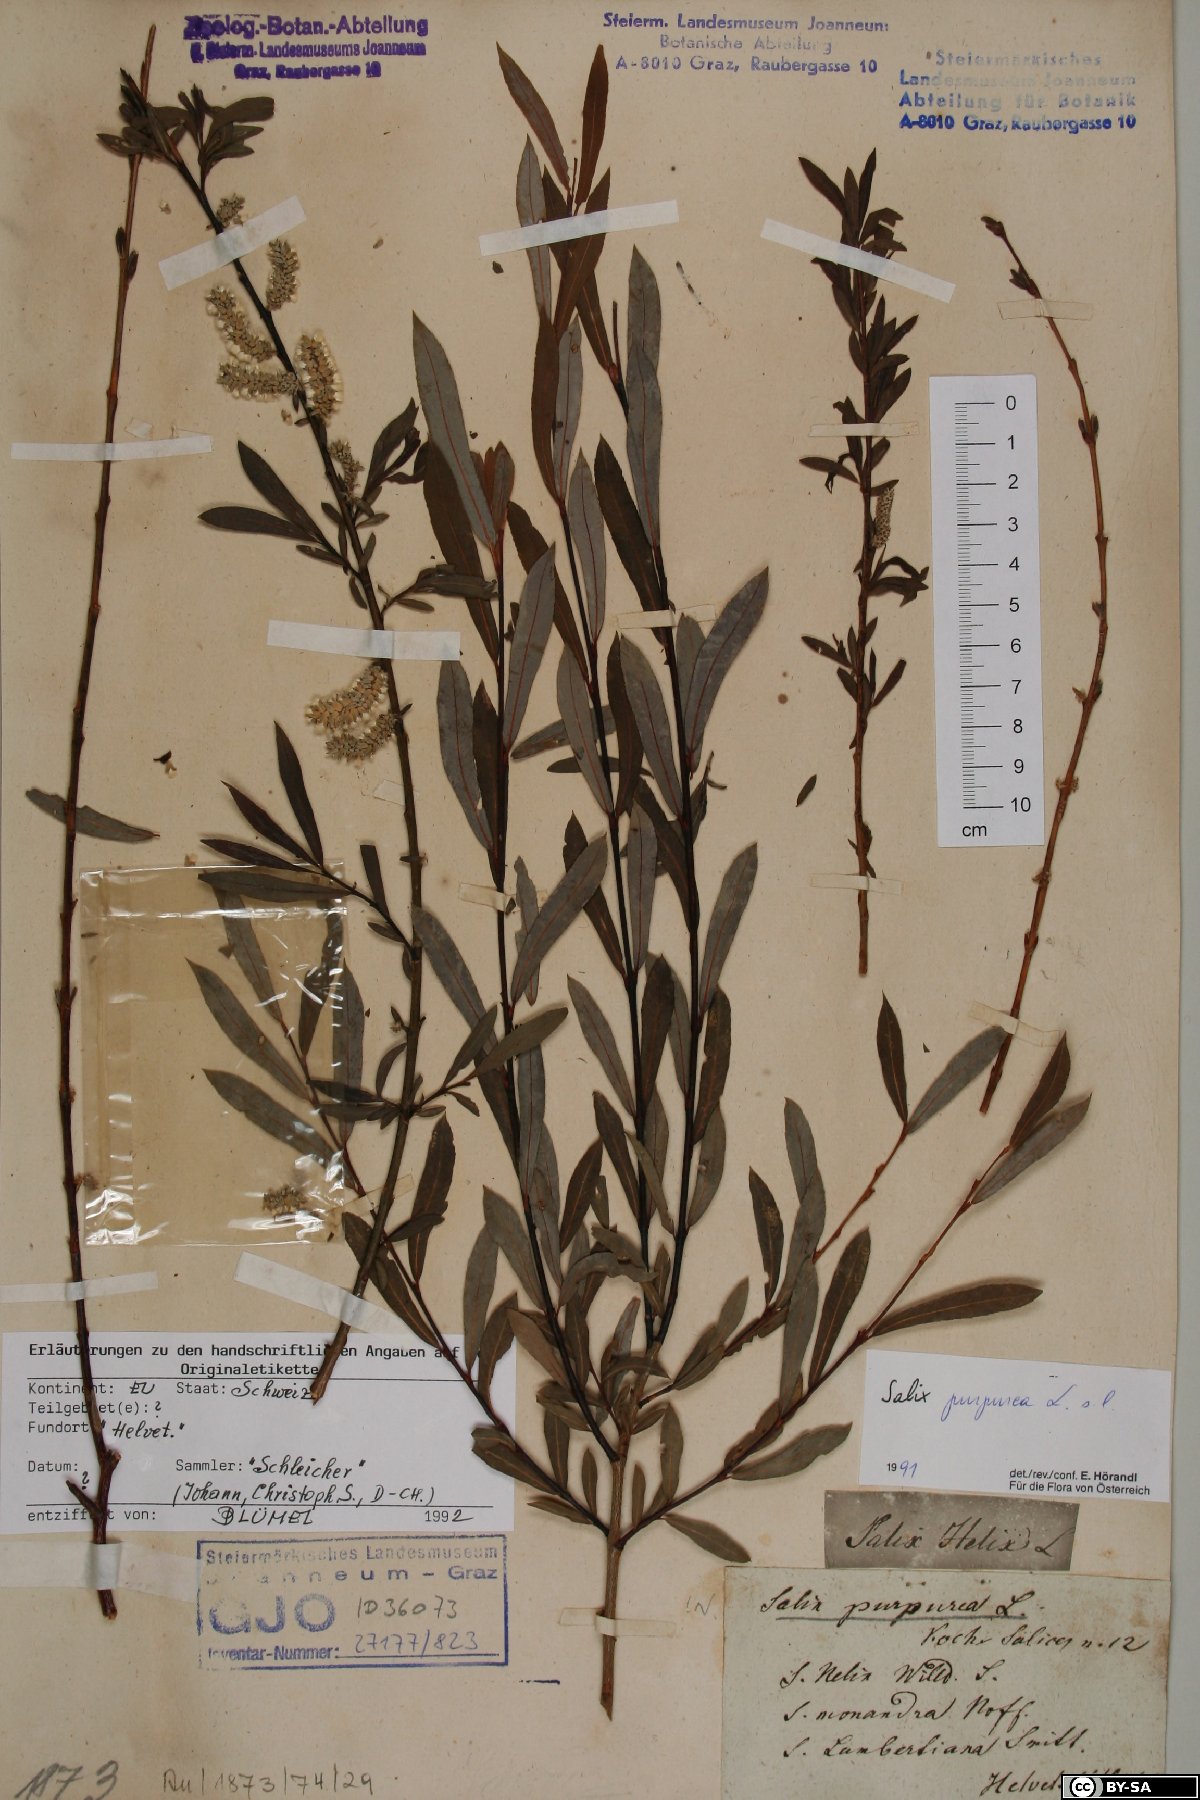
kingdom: Plantae
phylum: Tracheophyta
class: Magnoliopsida
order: Malpighiales
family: Salicaceae
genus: Salix
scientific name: Salix purpurea
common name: Purple willow
